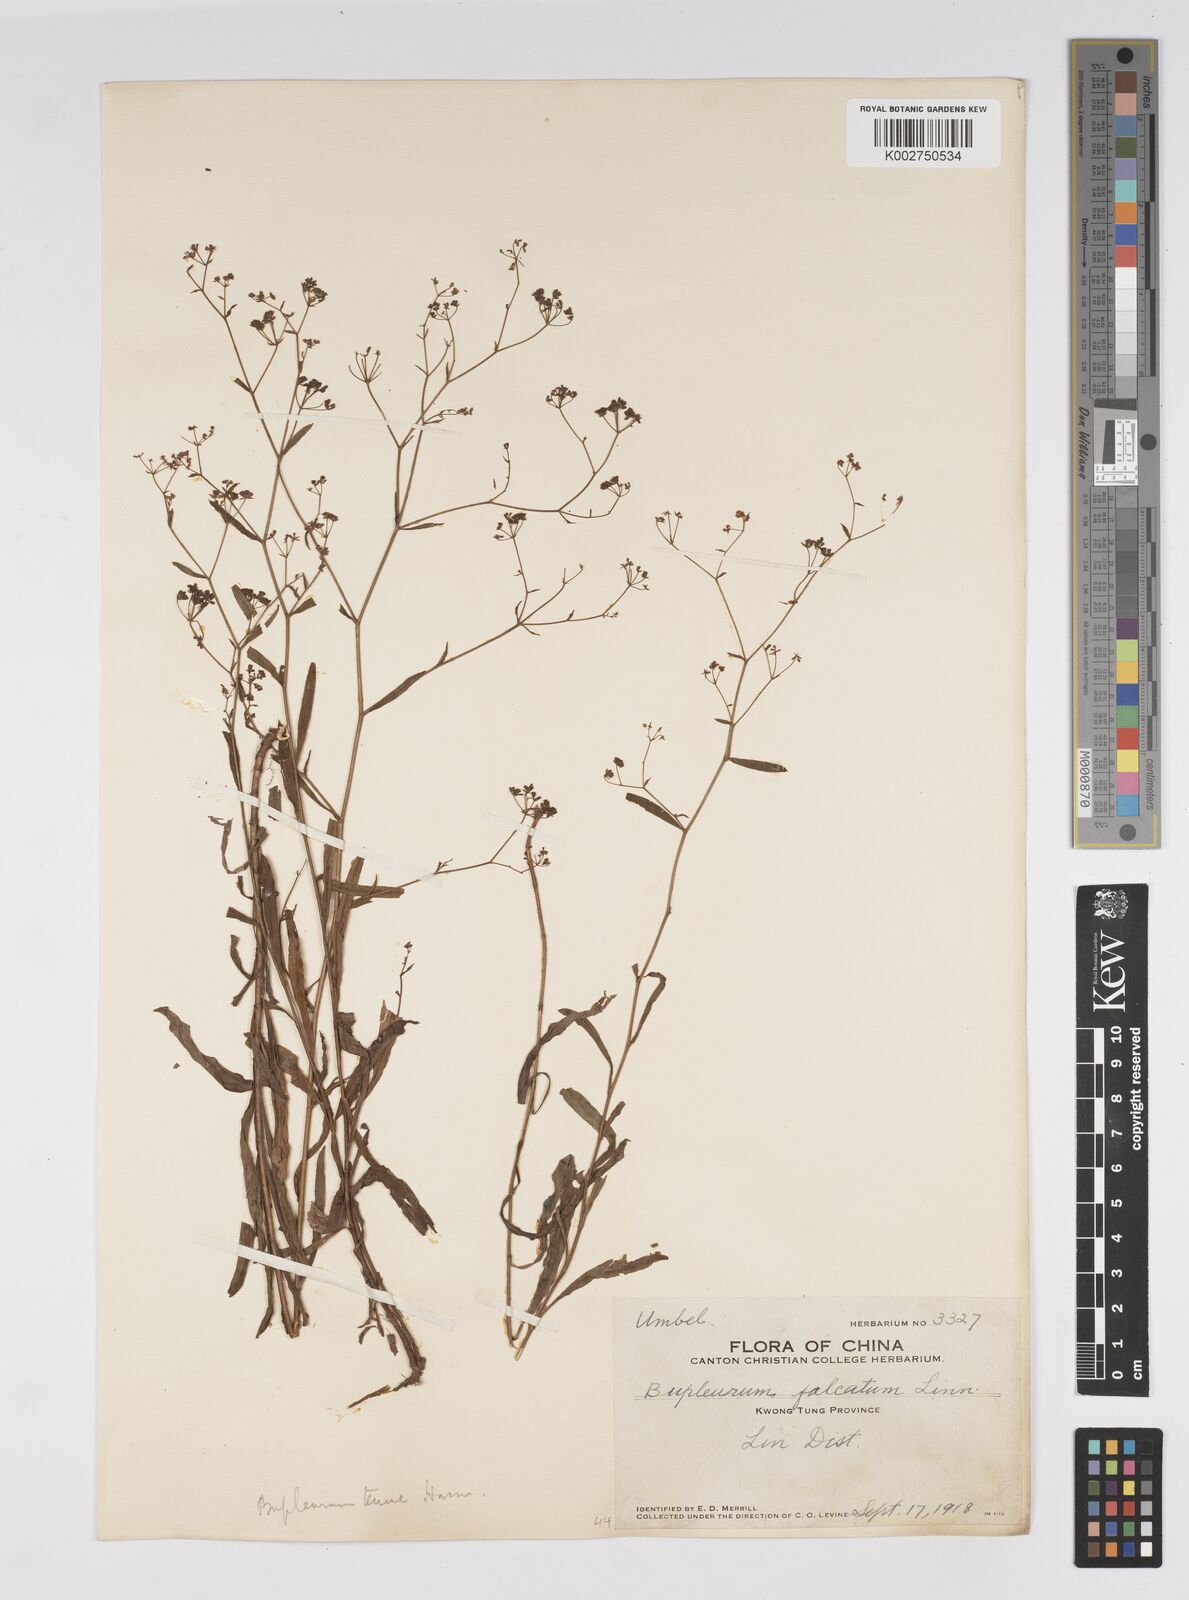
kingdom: Plantae
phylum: Tracheophyta
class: Magnoliopsida
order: Apiales
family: Apiaceae
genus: Bupleurum
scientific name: Bupleurum hamiltonii
